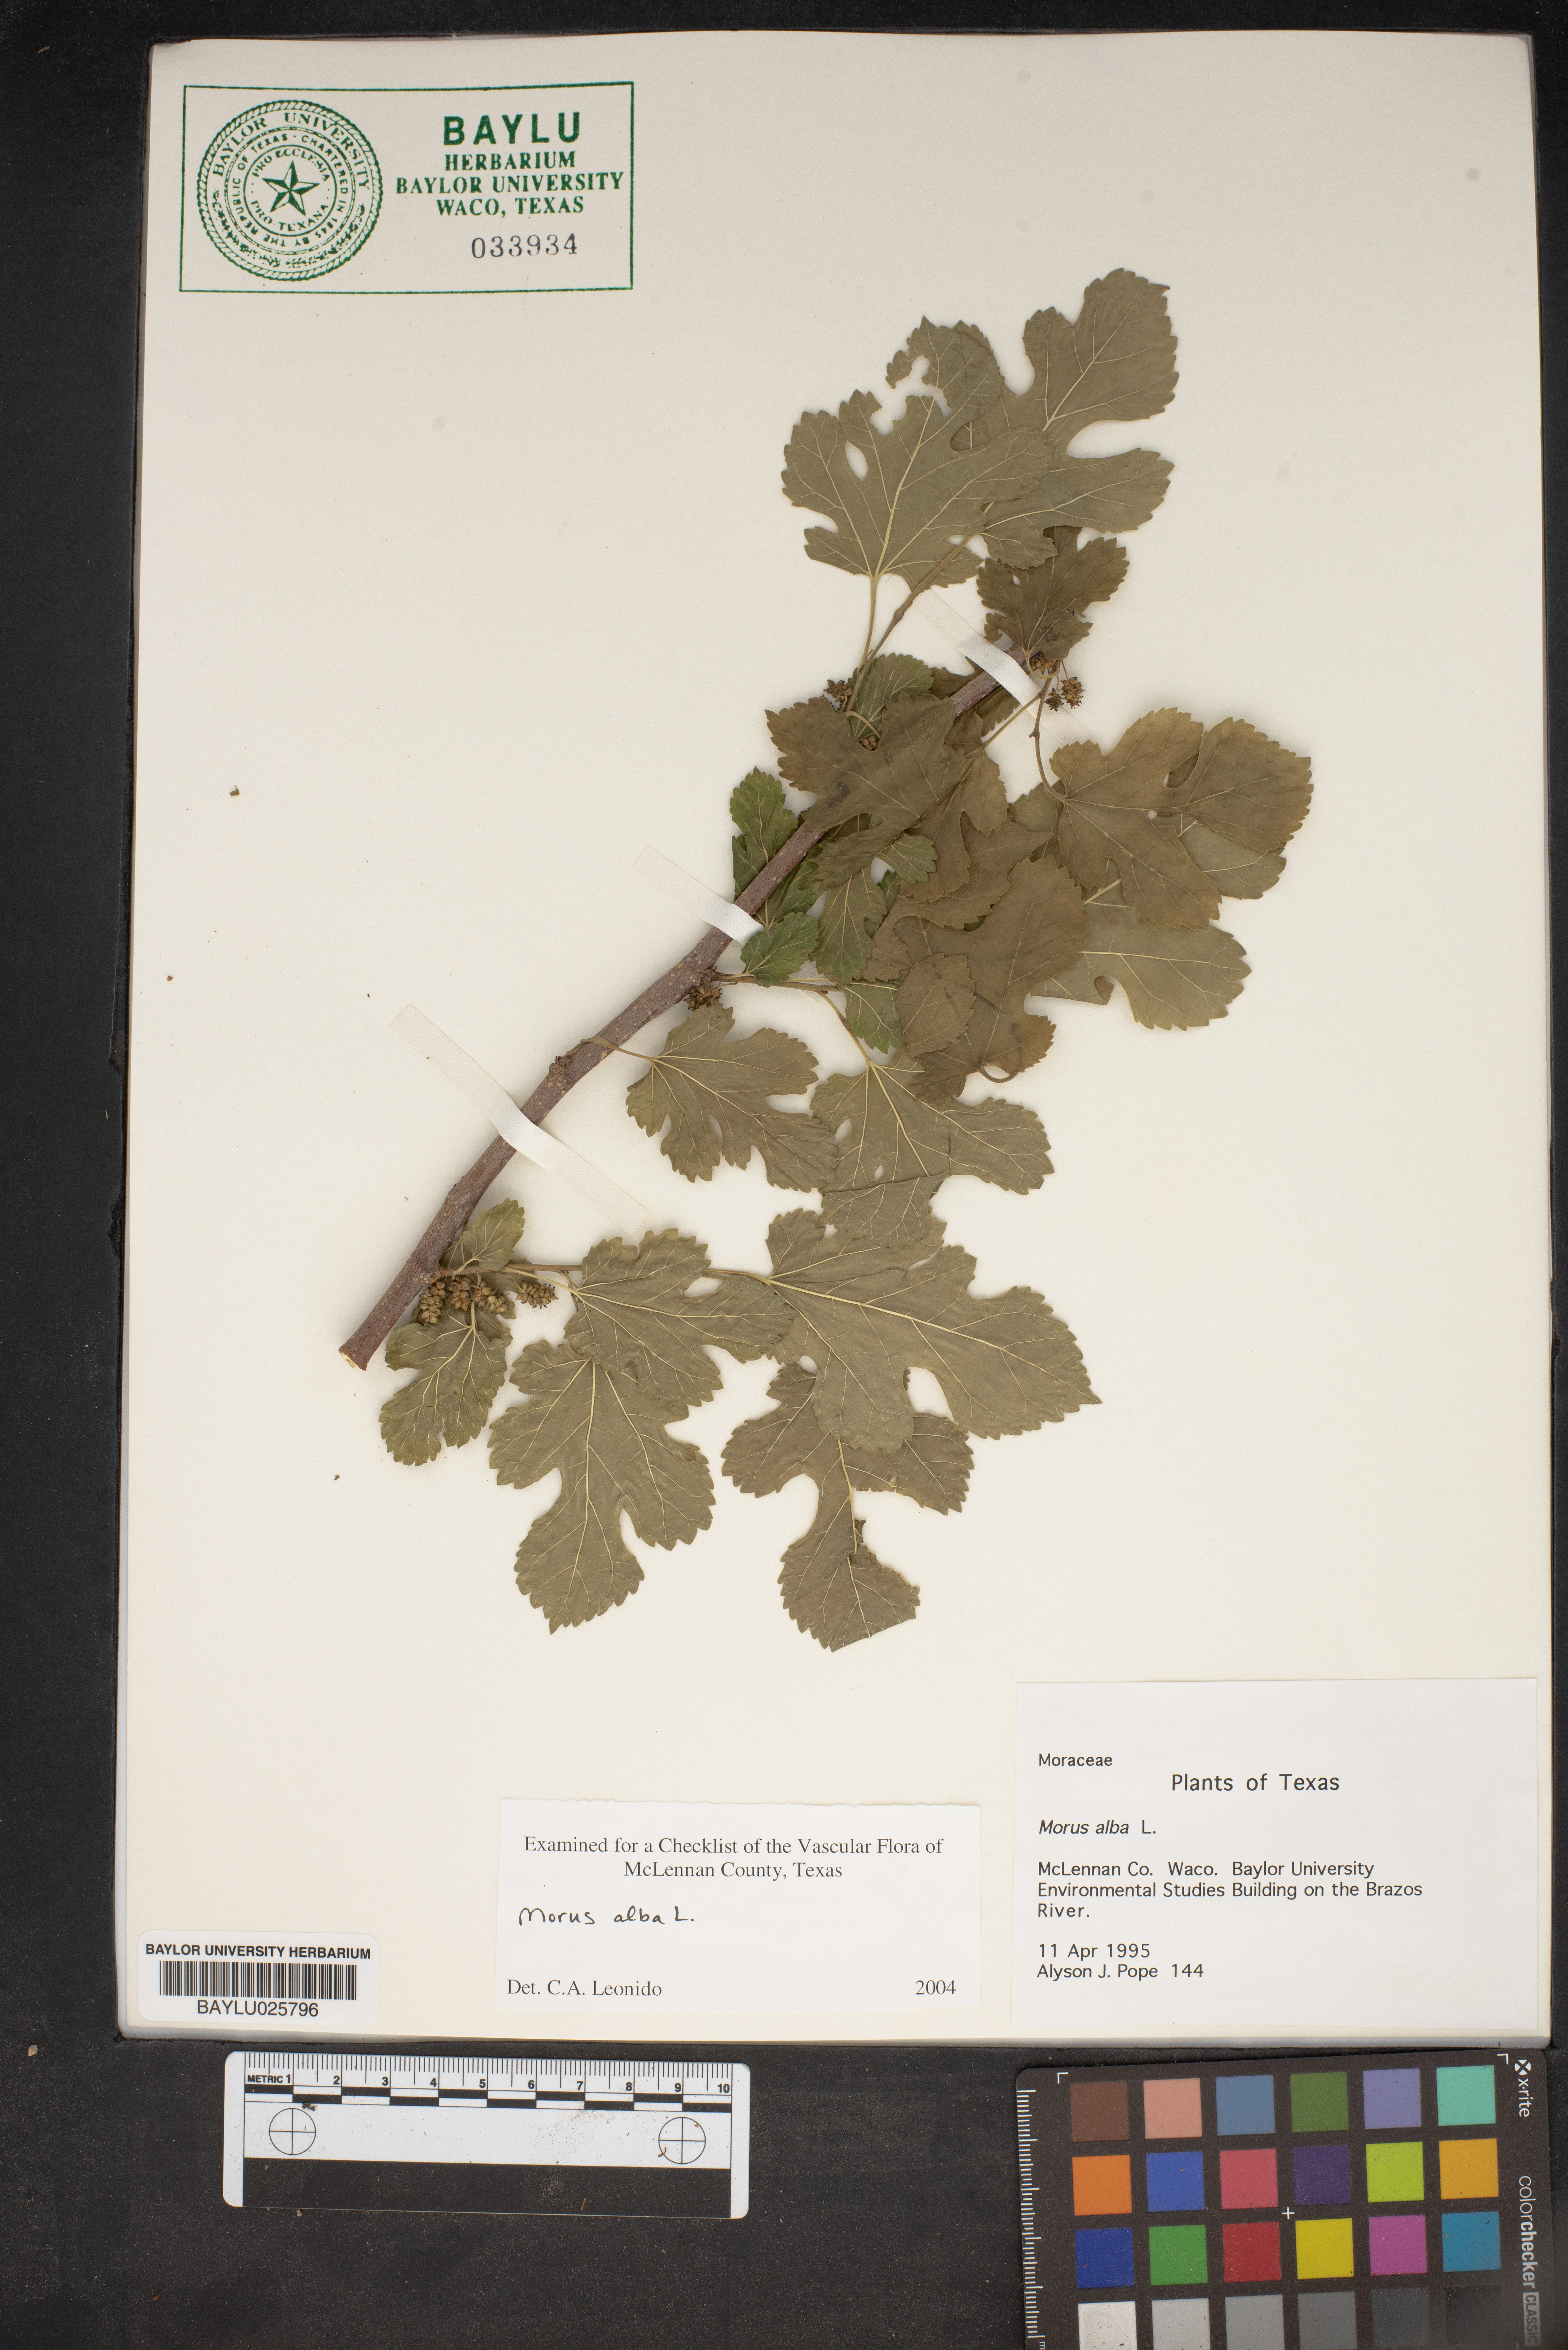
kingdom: Plantae
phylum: Tracheophyta
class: Magnoliopsida
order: Rosales
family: Moraceae
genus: Morus
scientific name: Morus alba
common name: White mulberry
